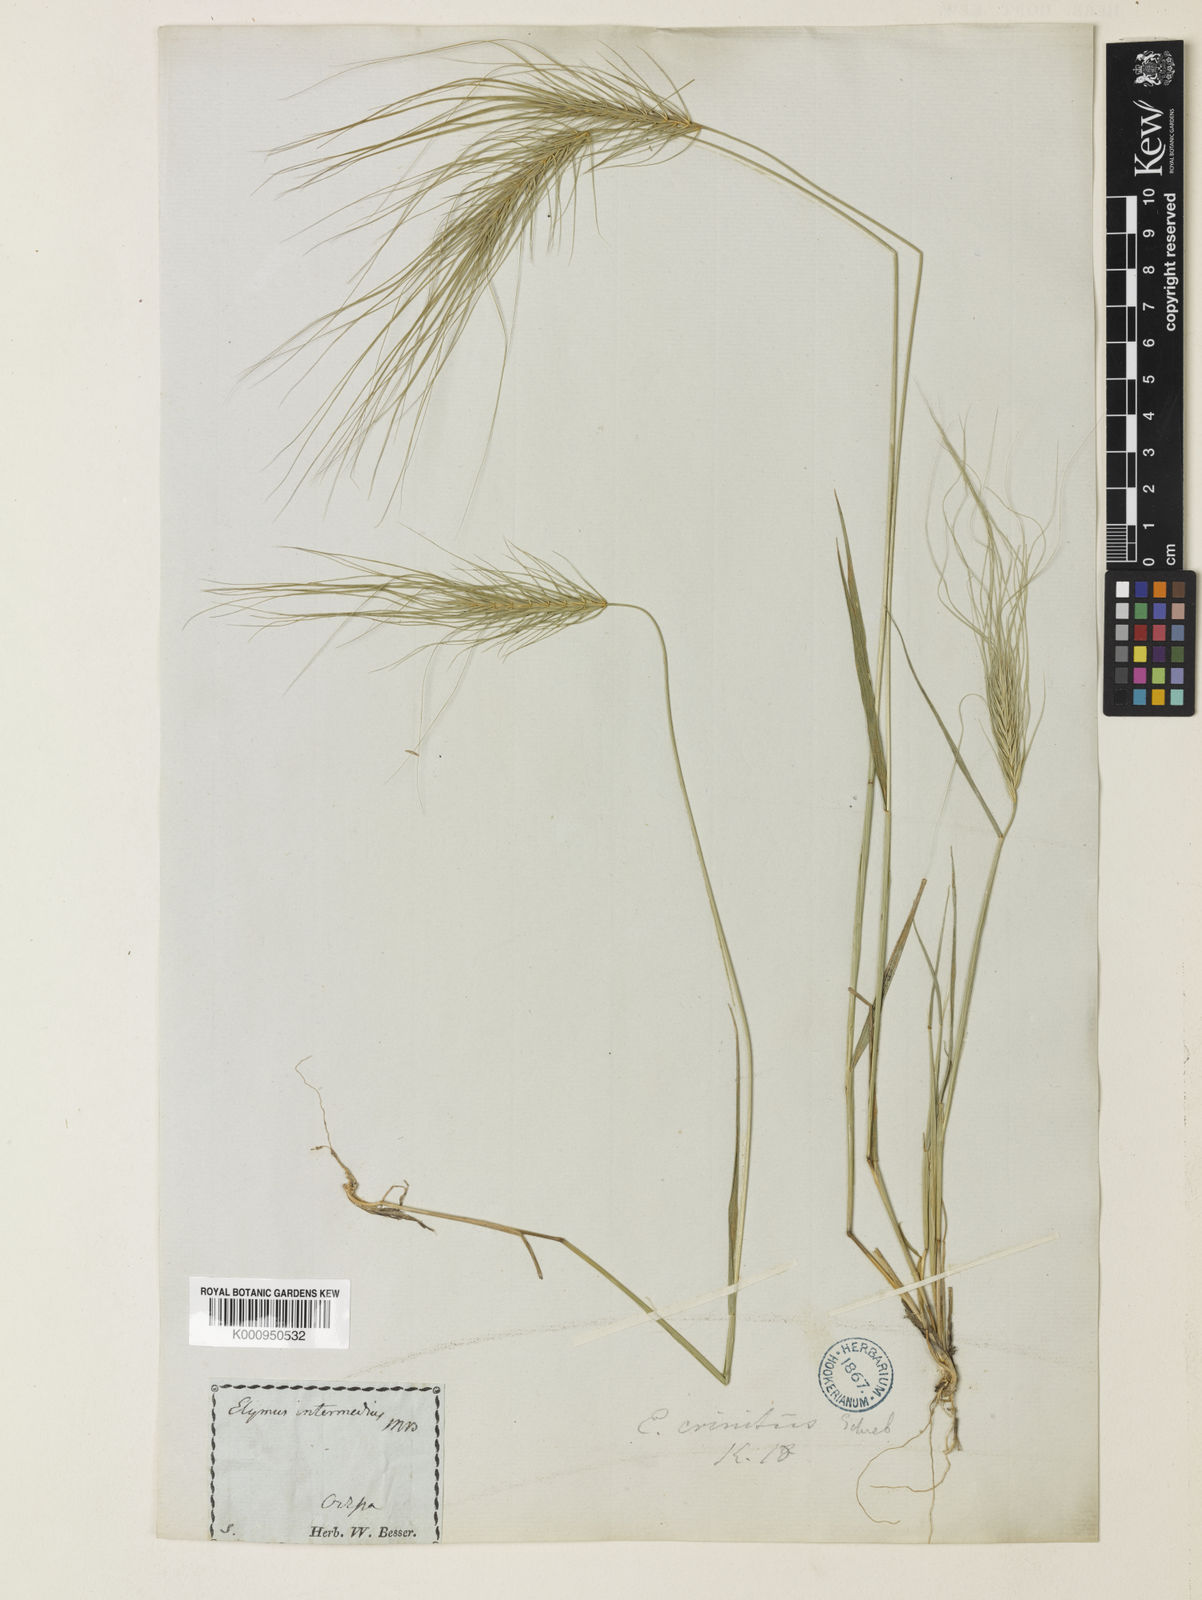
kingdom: Plantae
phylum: Tracheophyta
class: Liliopsida
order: Poales
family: Poaceae
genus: Taeniatherum
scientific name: Taeniatherum caput-medusae
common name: Medusahead
